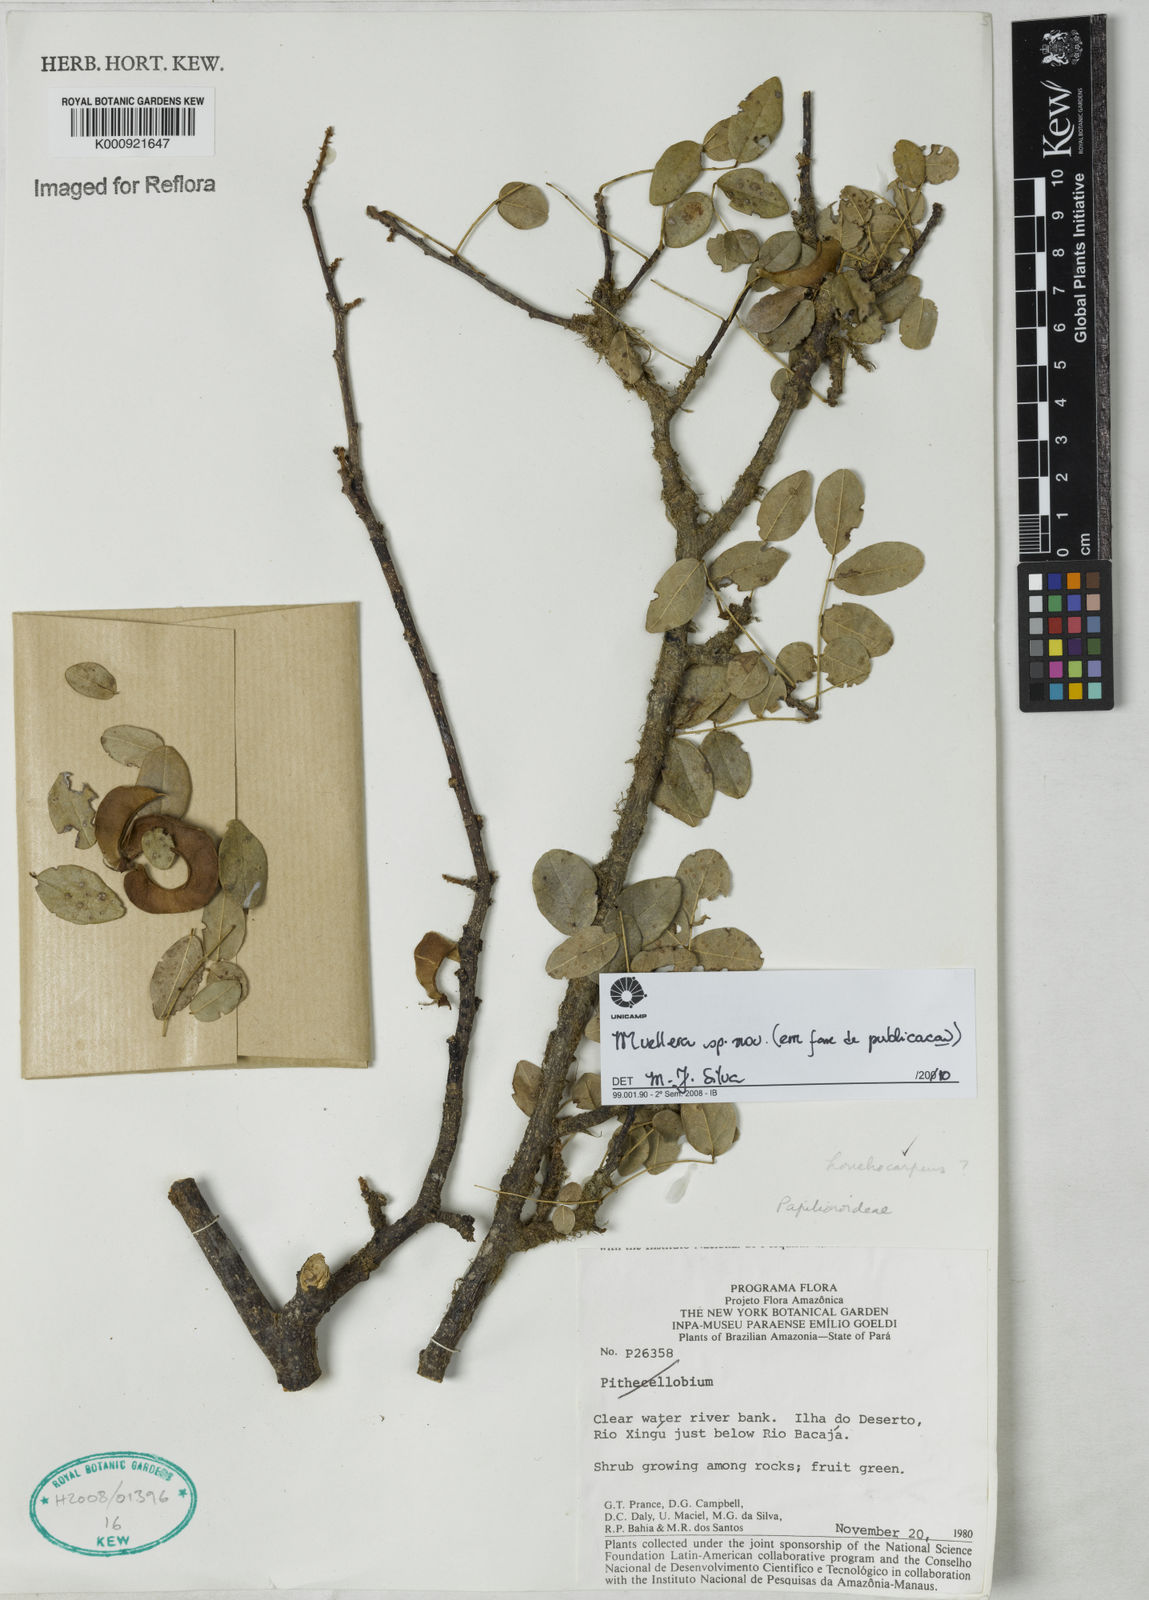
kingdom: Plantae
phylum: Tracheophyta
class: Magnoliopsida
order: Fabales
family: Fabaceae
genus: Muellera
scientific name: Muellera
